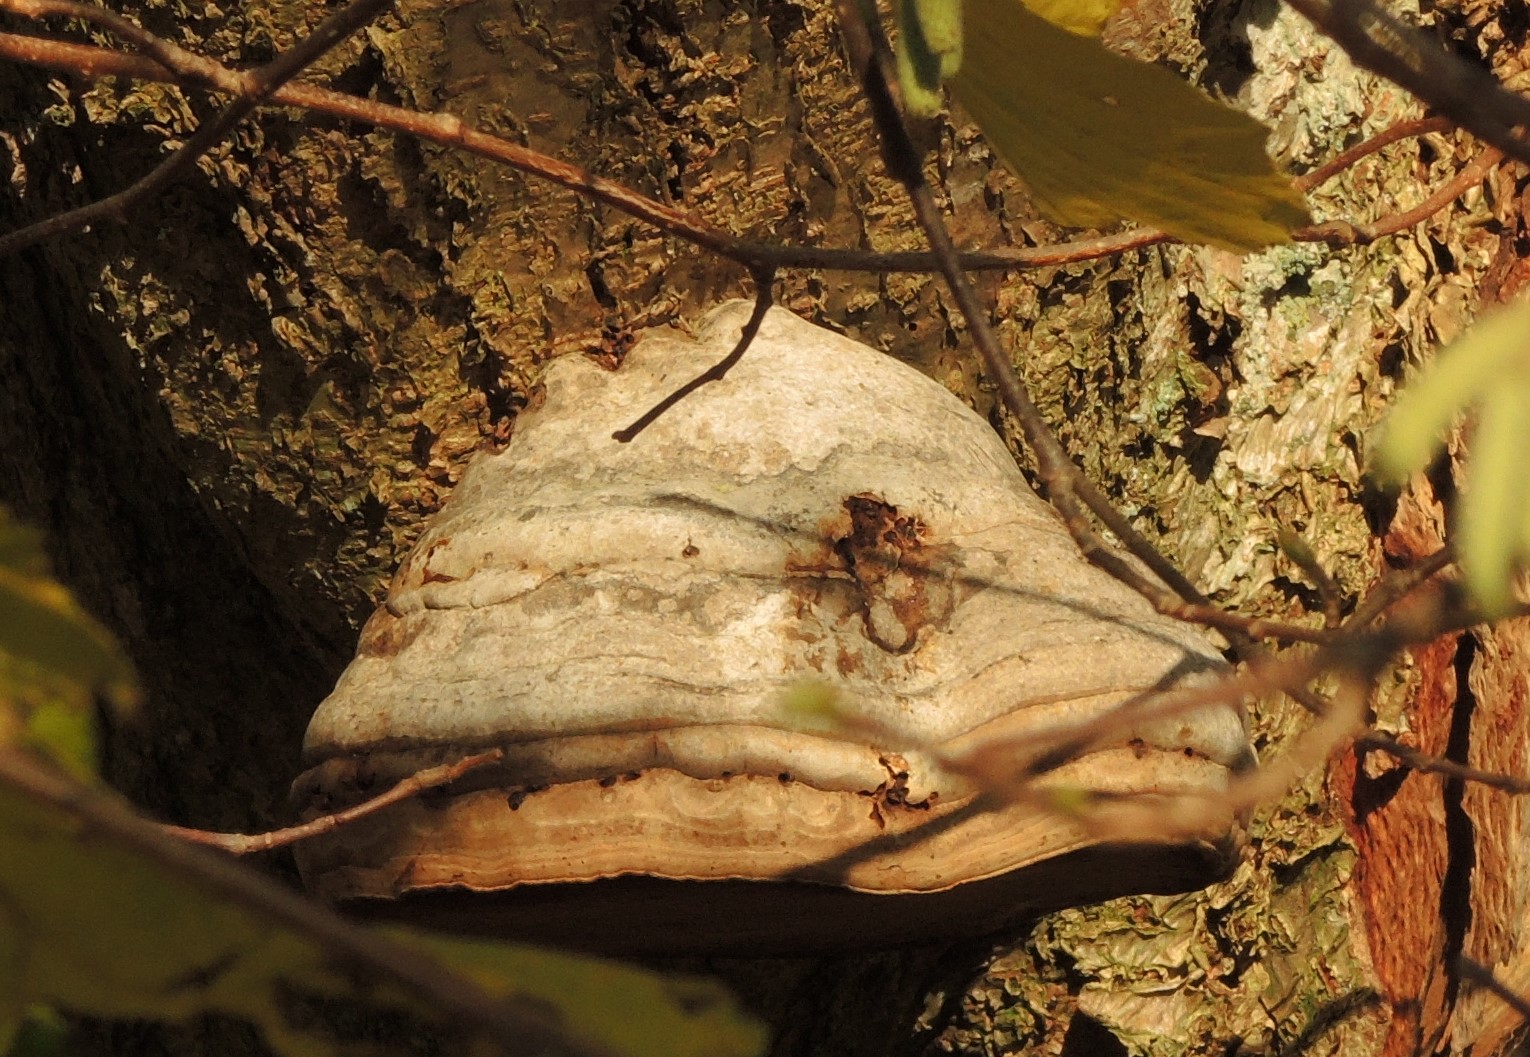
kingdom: Fungi
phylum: Basidiomycota
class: Agaricomycetes
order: Polyporales
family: Polyporaceae
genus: Fomes
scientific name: Fomes fomentarius
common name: tøndersvamp
